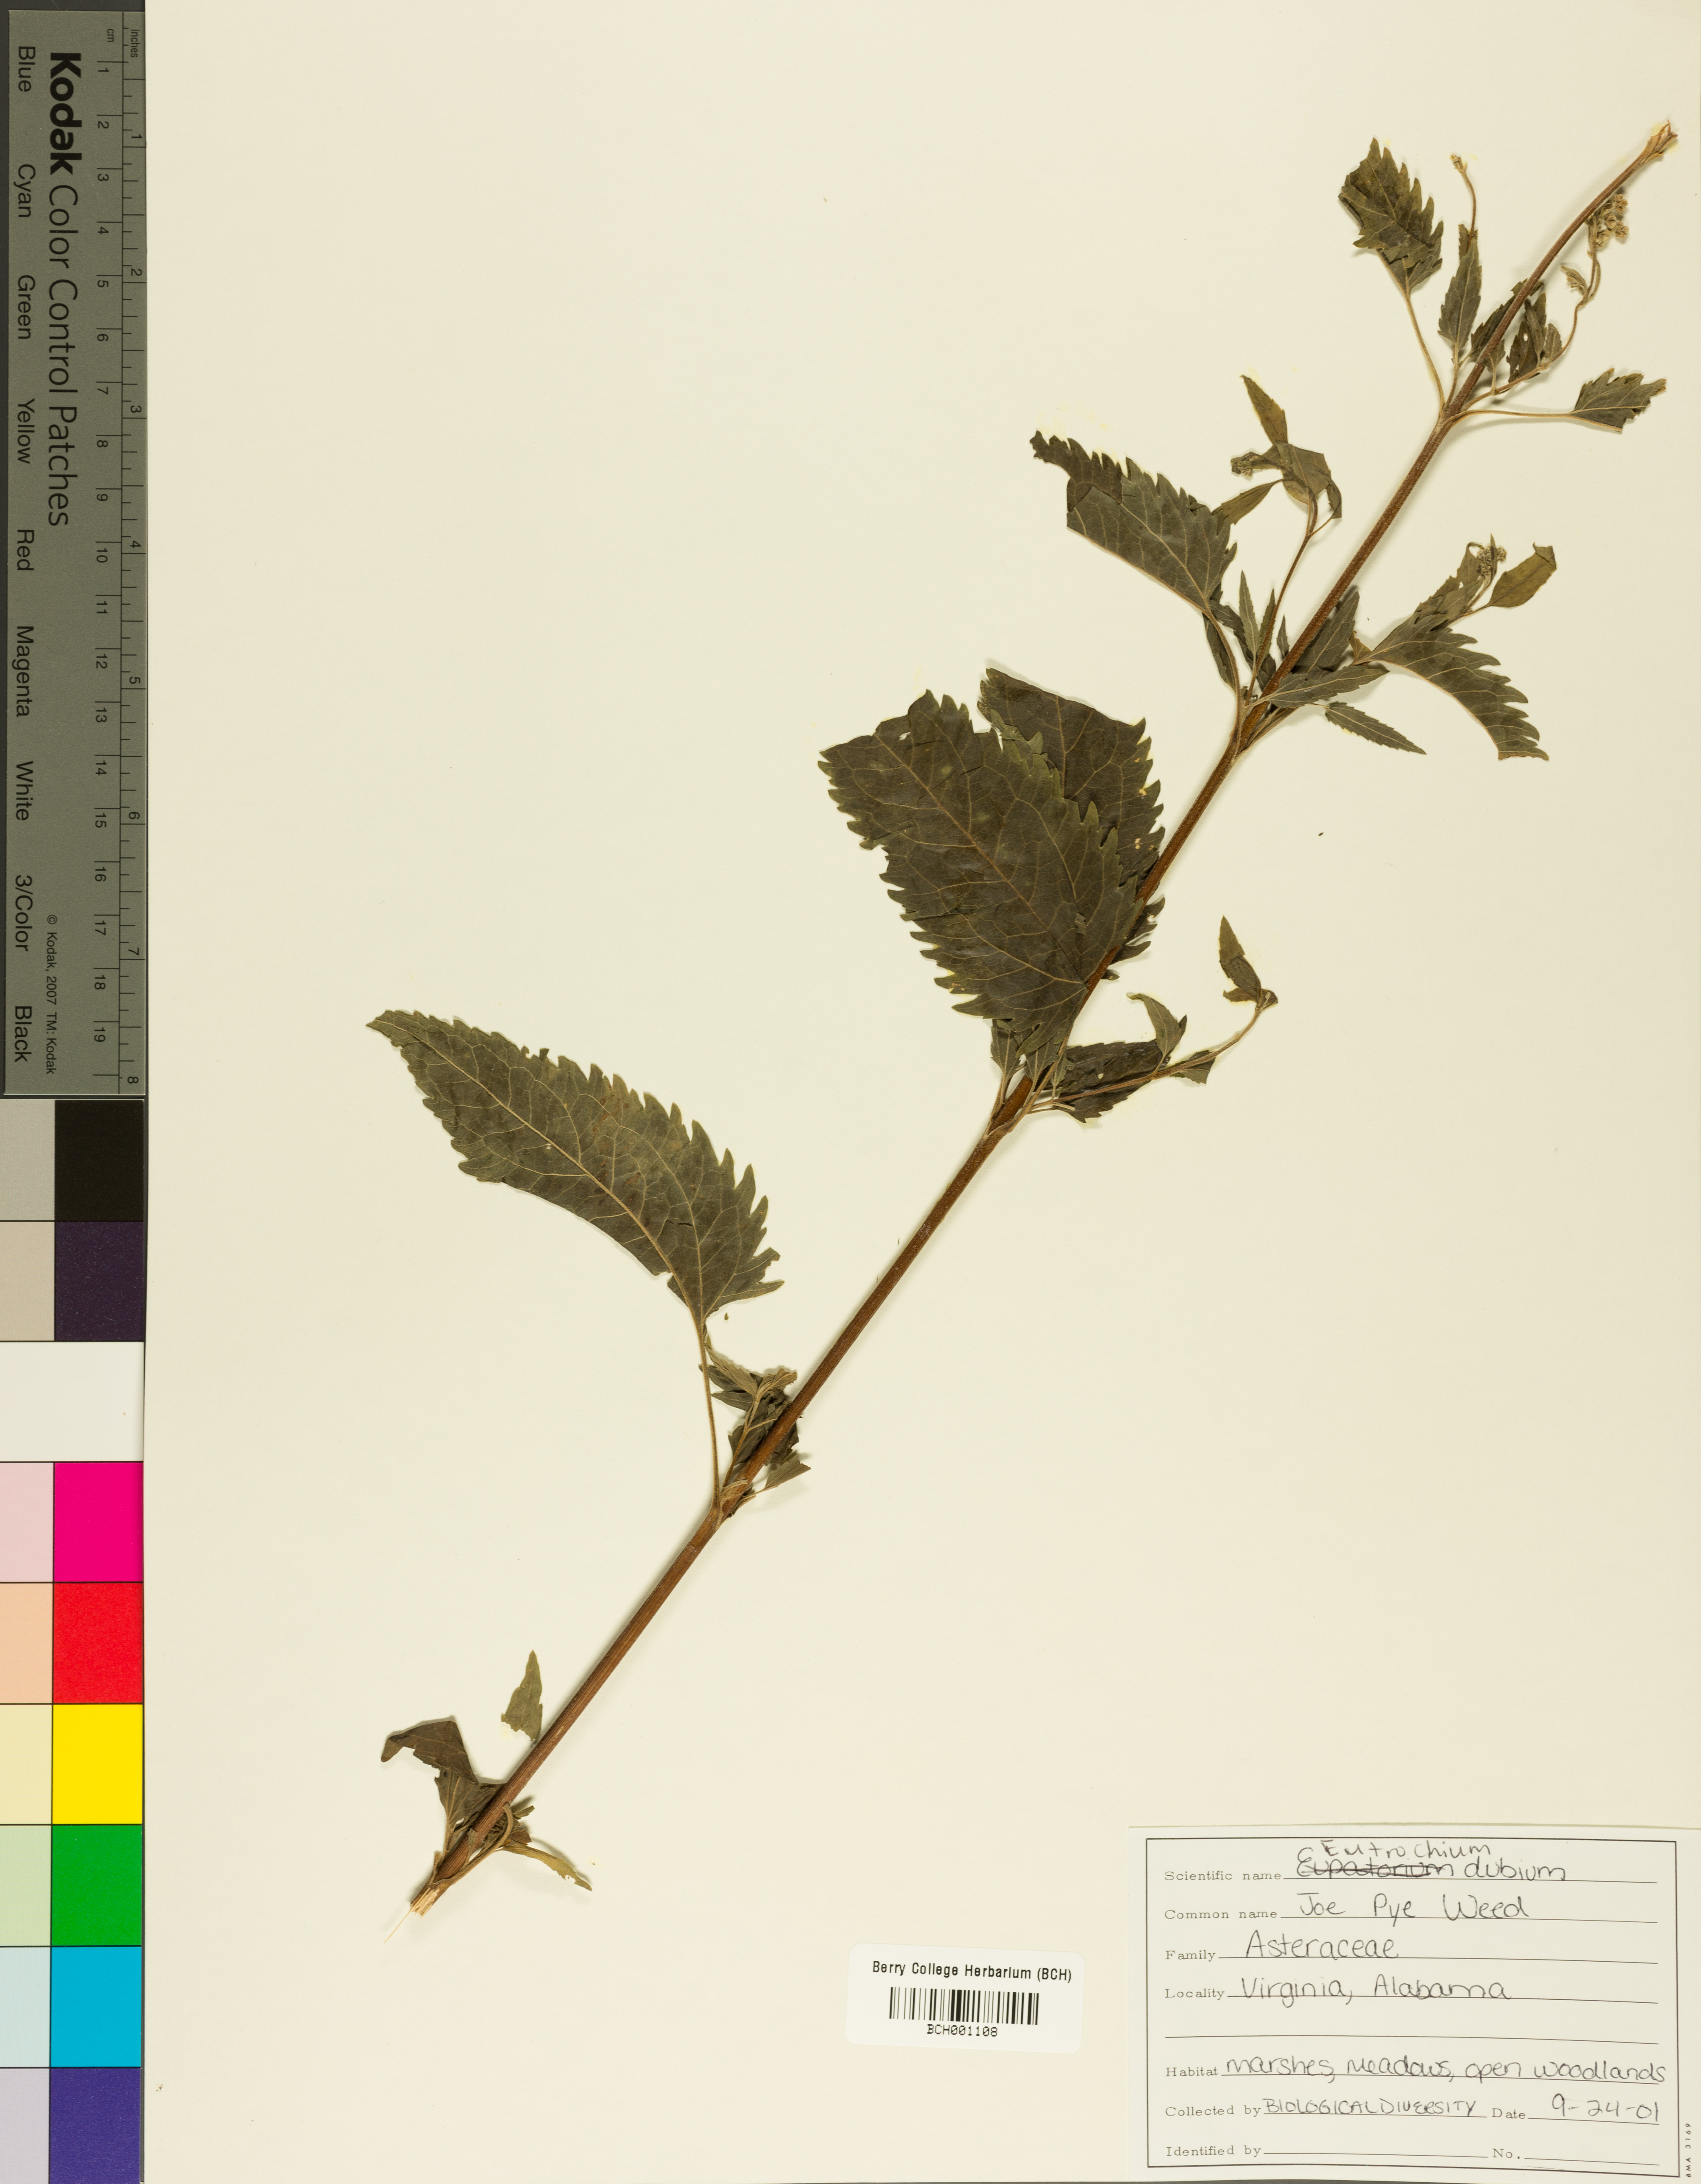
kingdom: Plantae
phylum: Tracheophyta
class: Magnoliopsida
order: Asterales
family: Asteraceae
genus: Eutrochium
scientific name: Eutrochium dubium
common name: Coastal plain joe pye weed
